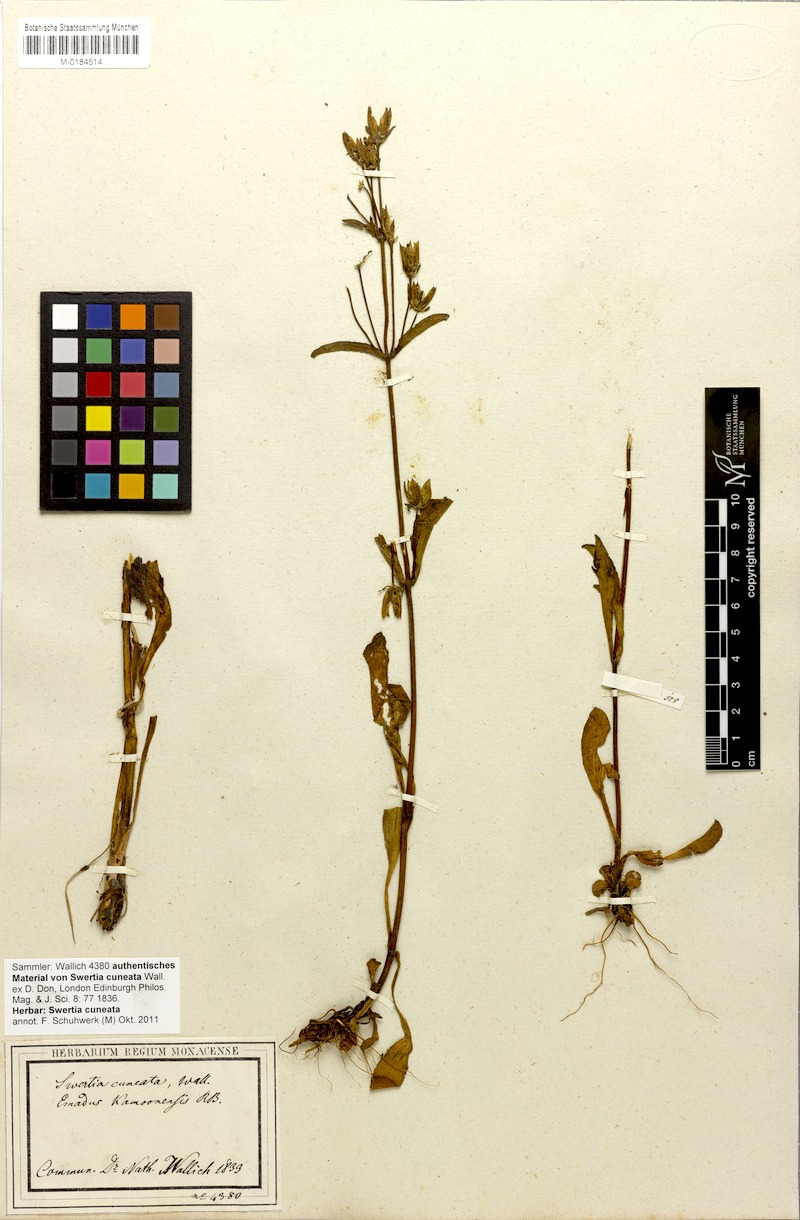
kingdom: Plantae
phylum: Tracheophyta
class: Magnoliopsida
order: Gentianales
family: Gentianaceae
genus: Swertia
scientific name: Swertia cuneata
